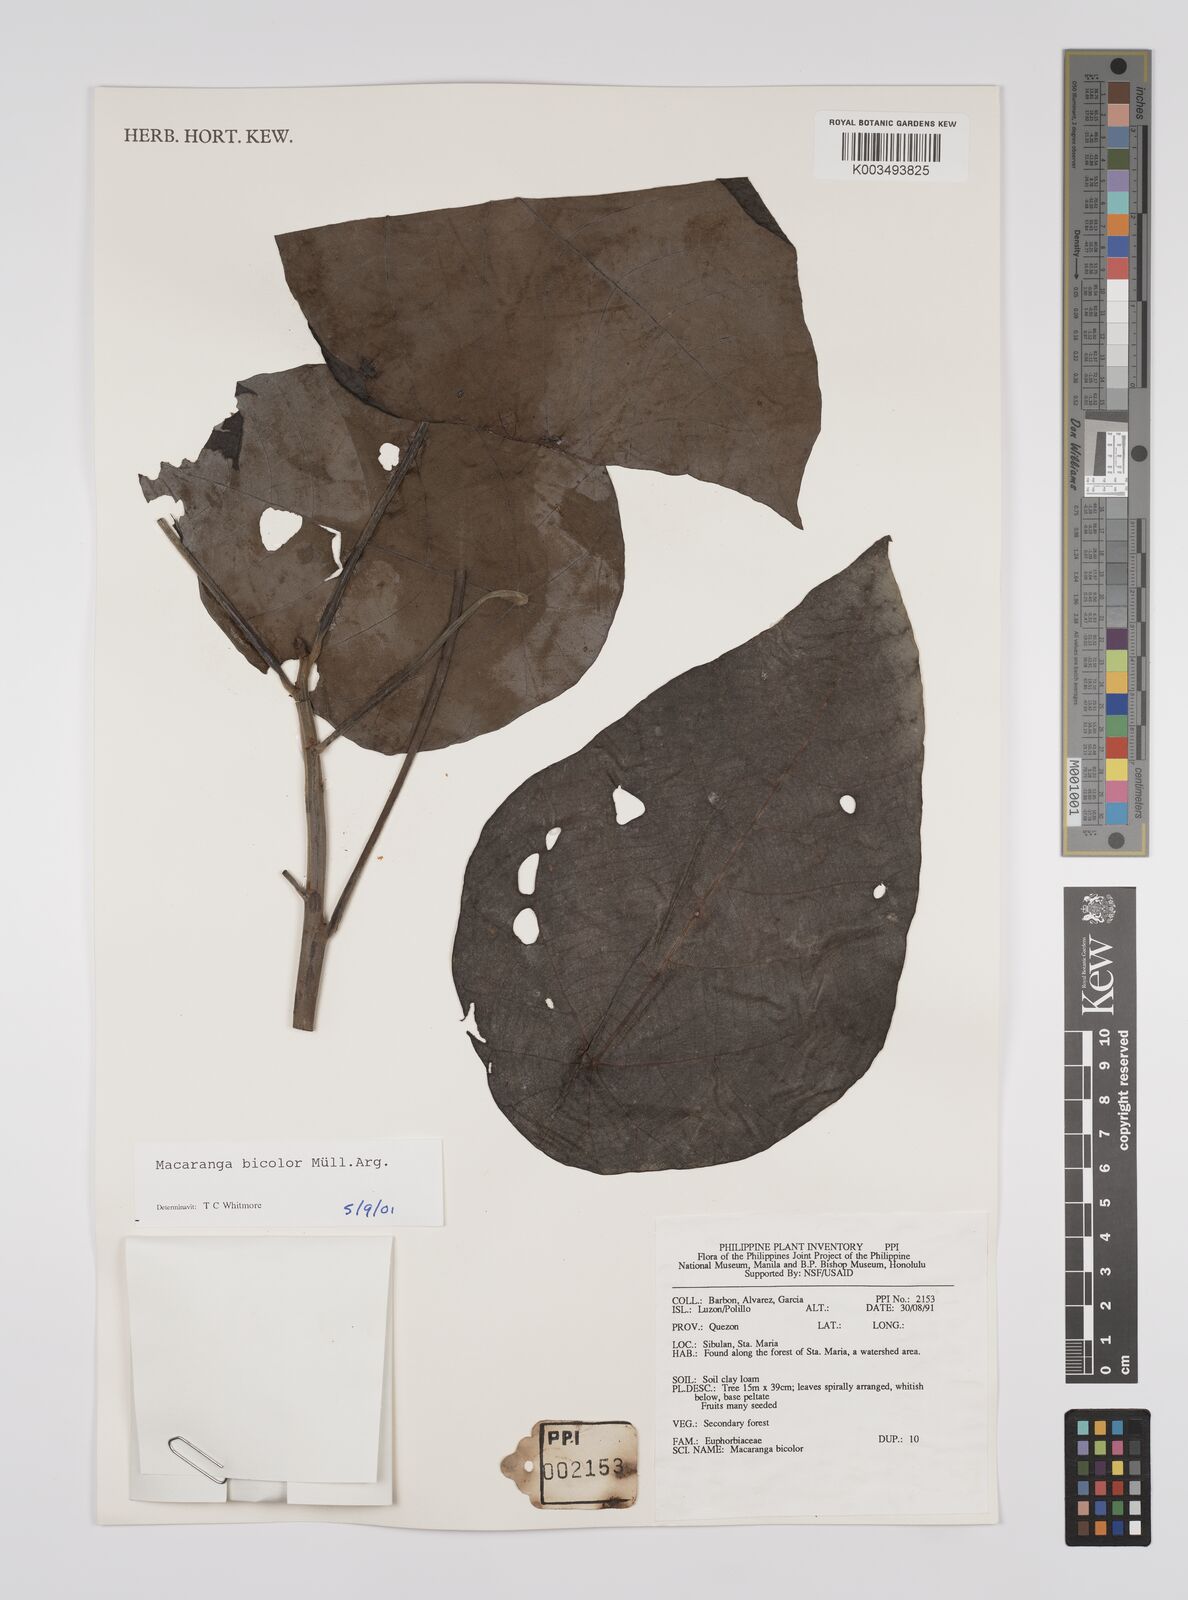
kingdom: Plantae
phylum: Tracheophyta
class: Magnoliopsida
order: Malpighiales
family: Euphorbiaceae
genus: Macaranga
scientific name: Macaranga bicolor
